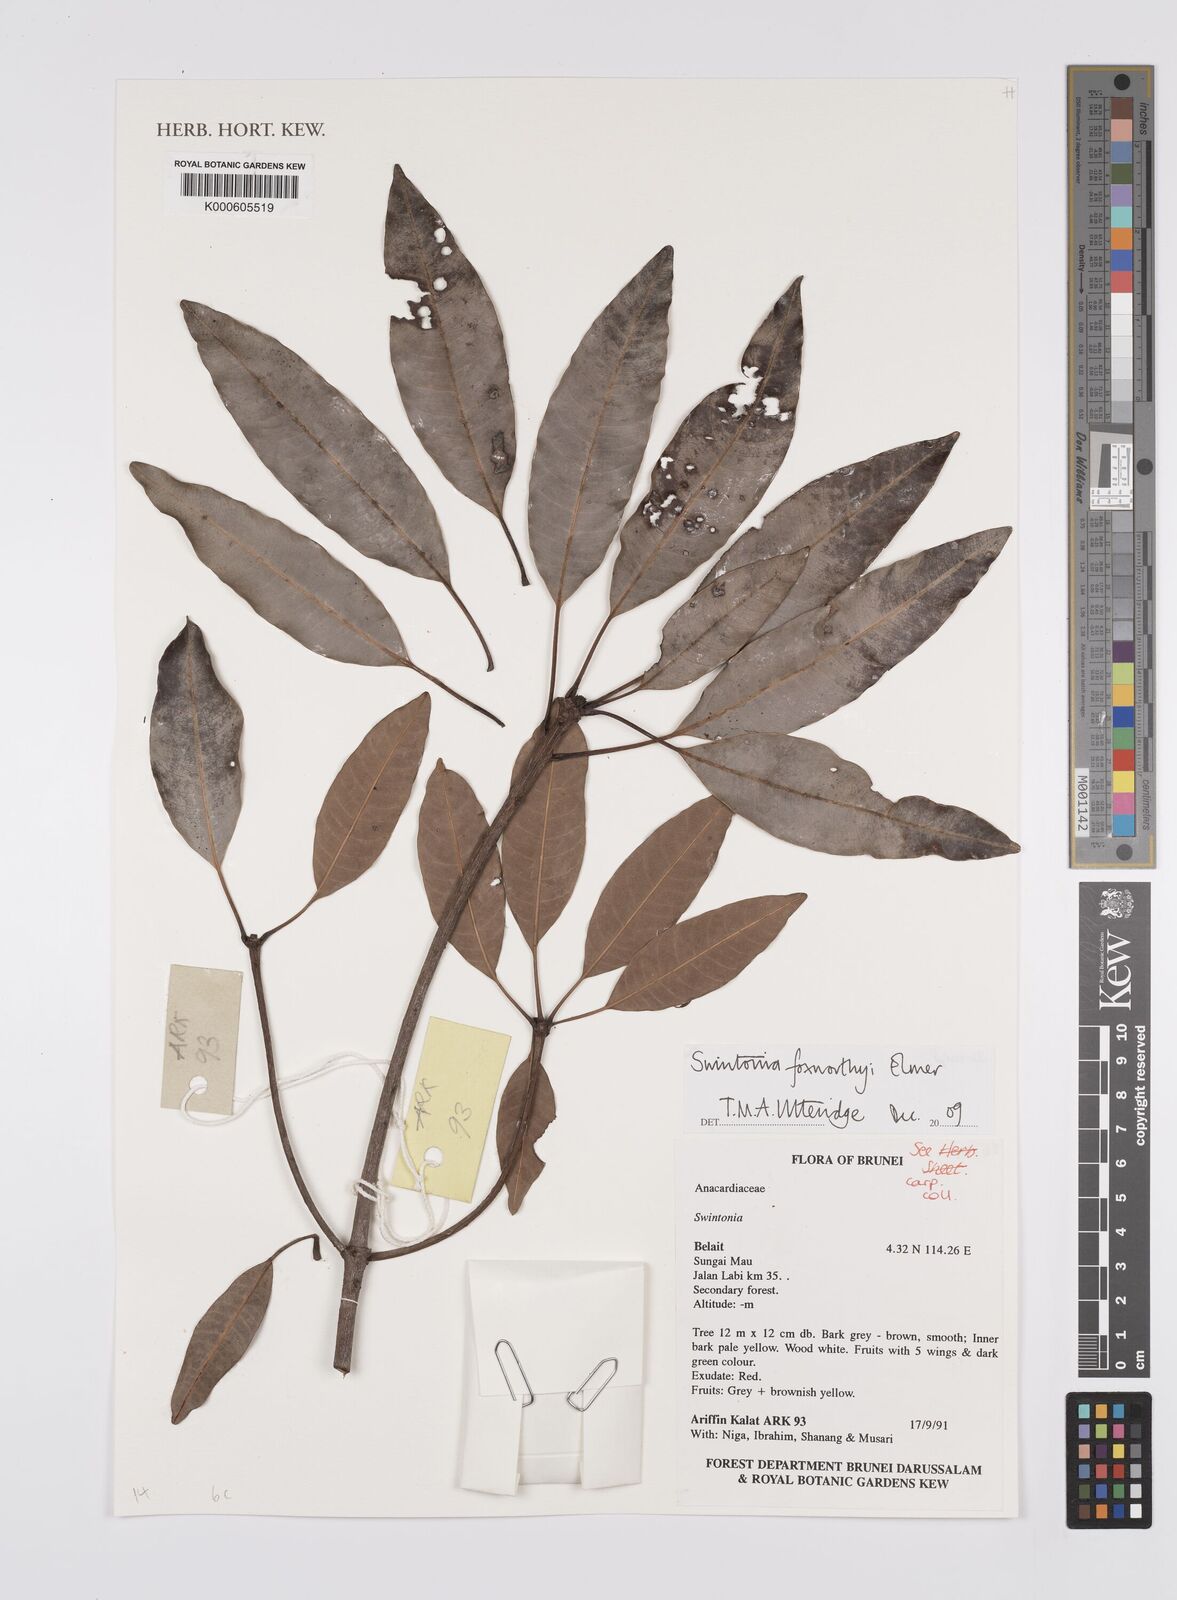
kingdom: Plantae
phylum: Tracheophyta
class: Magnoliopsida
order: Sapindales
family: Anacardiaceae
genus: Swintonia
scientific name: Swintonia foxworthyi
